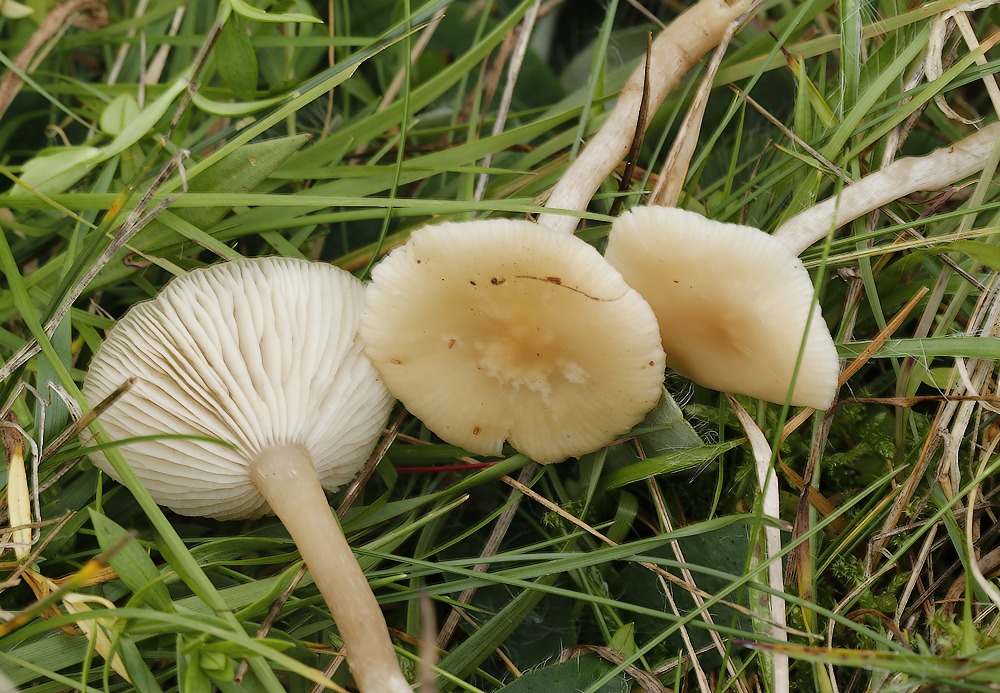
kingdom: Fungi
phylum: Basidiomycota
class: Agaricomycetes
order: Agaricales
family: Tricholomataceae
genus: Clitocybe
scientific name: Clitocybe
